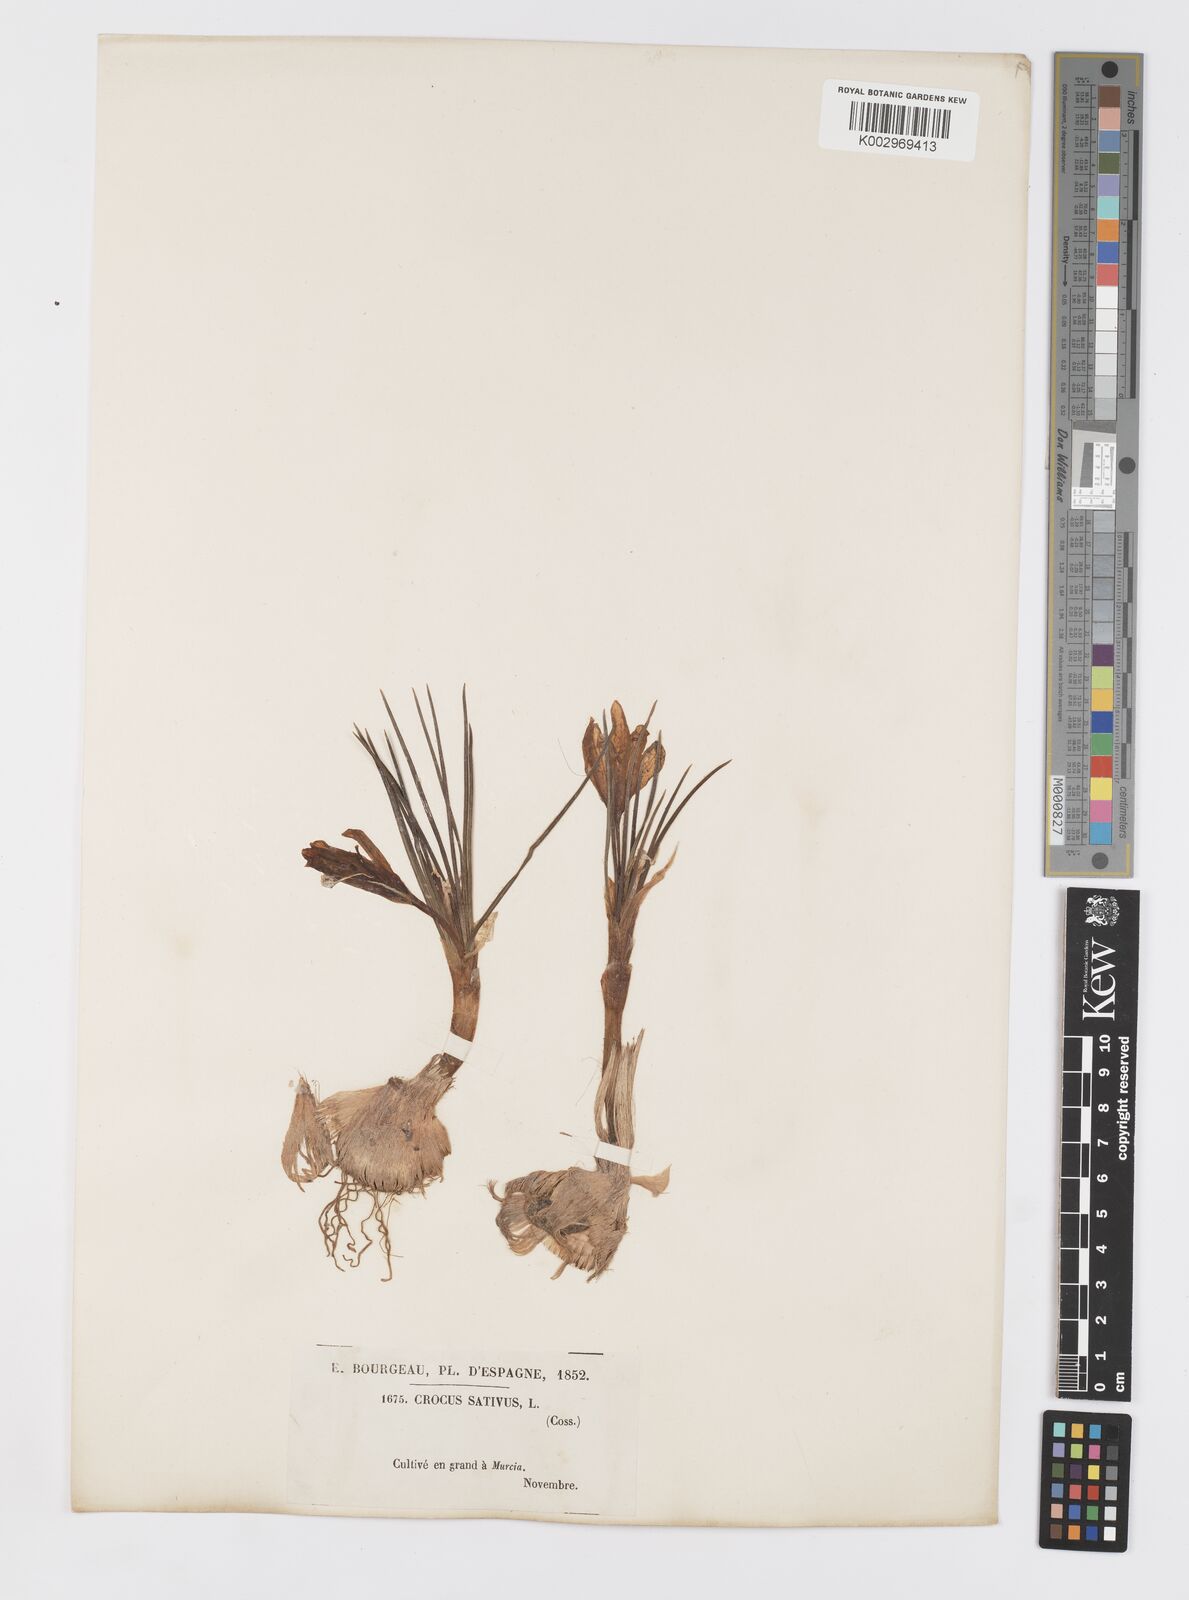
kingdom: Plantae
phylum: Tracheophyta
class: Liliopsida
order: Asparagales
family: Iridaceae
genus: Crocus
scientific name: Crocus sativus
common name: Saffron crocus
